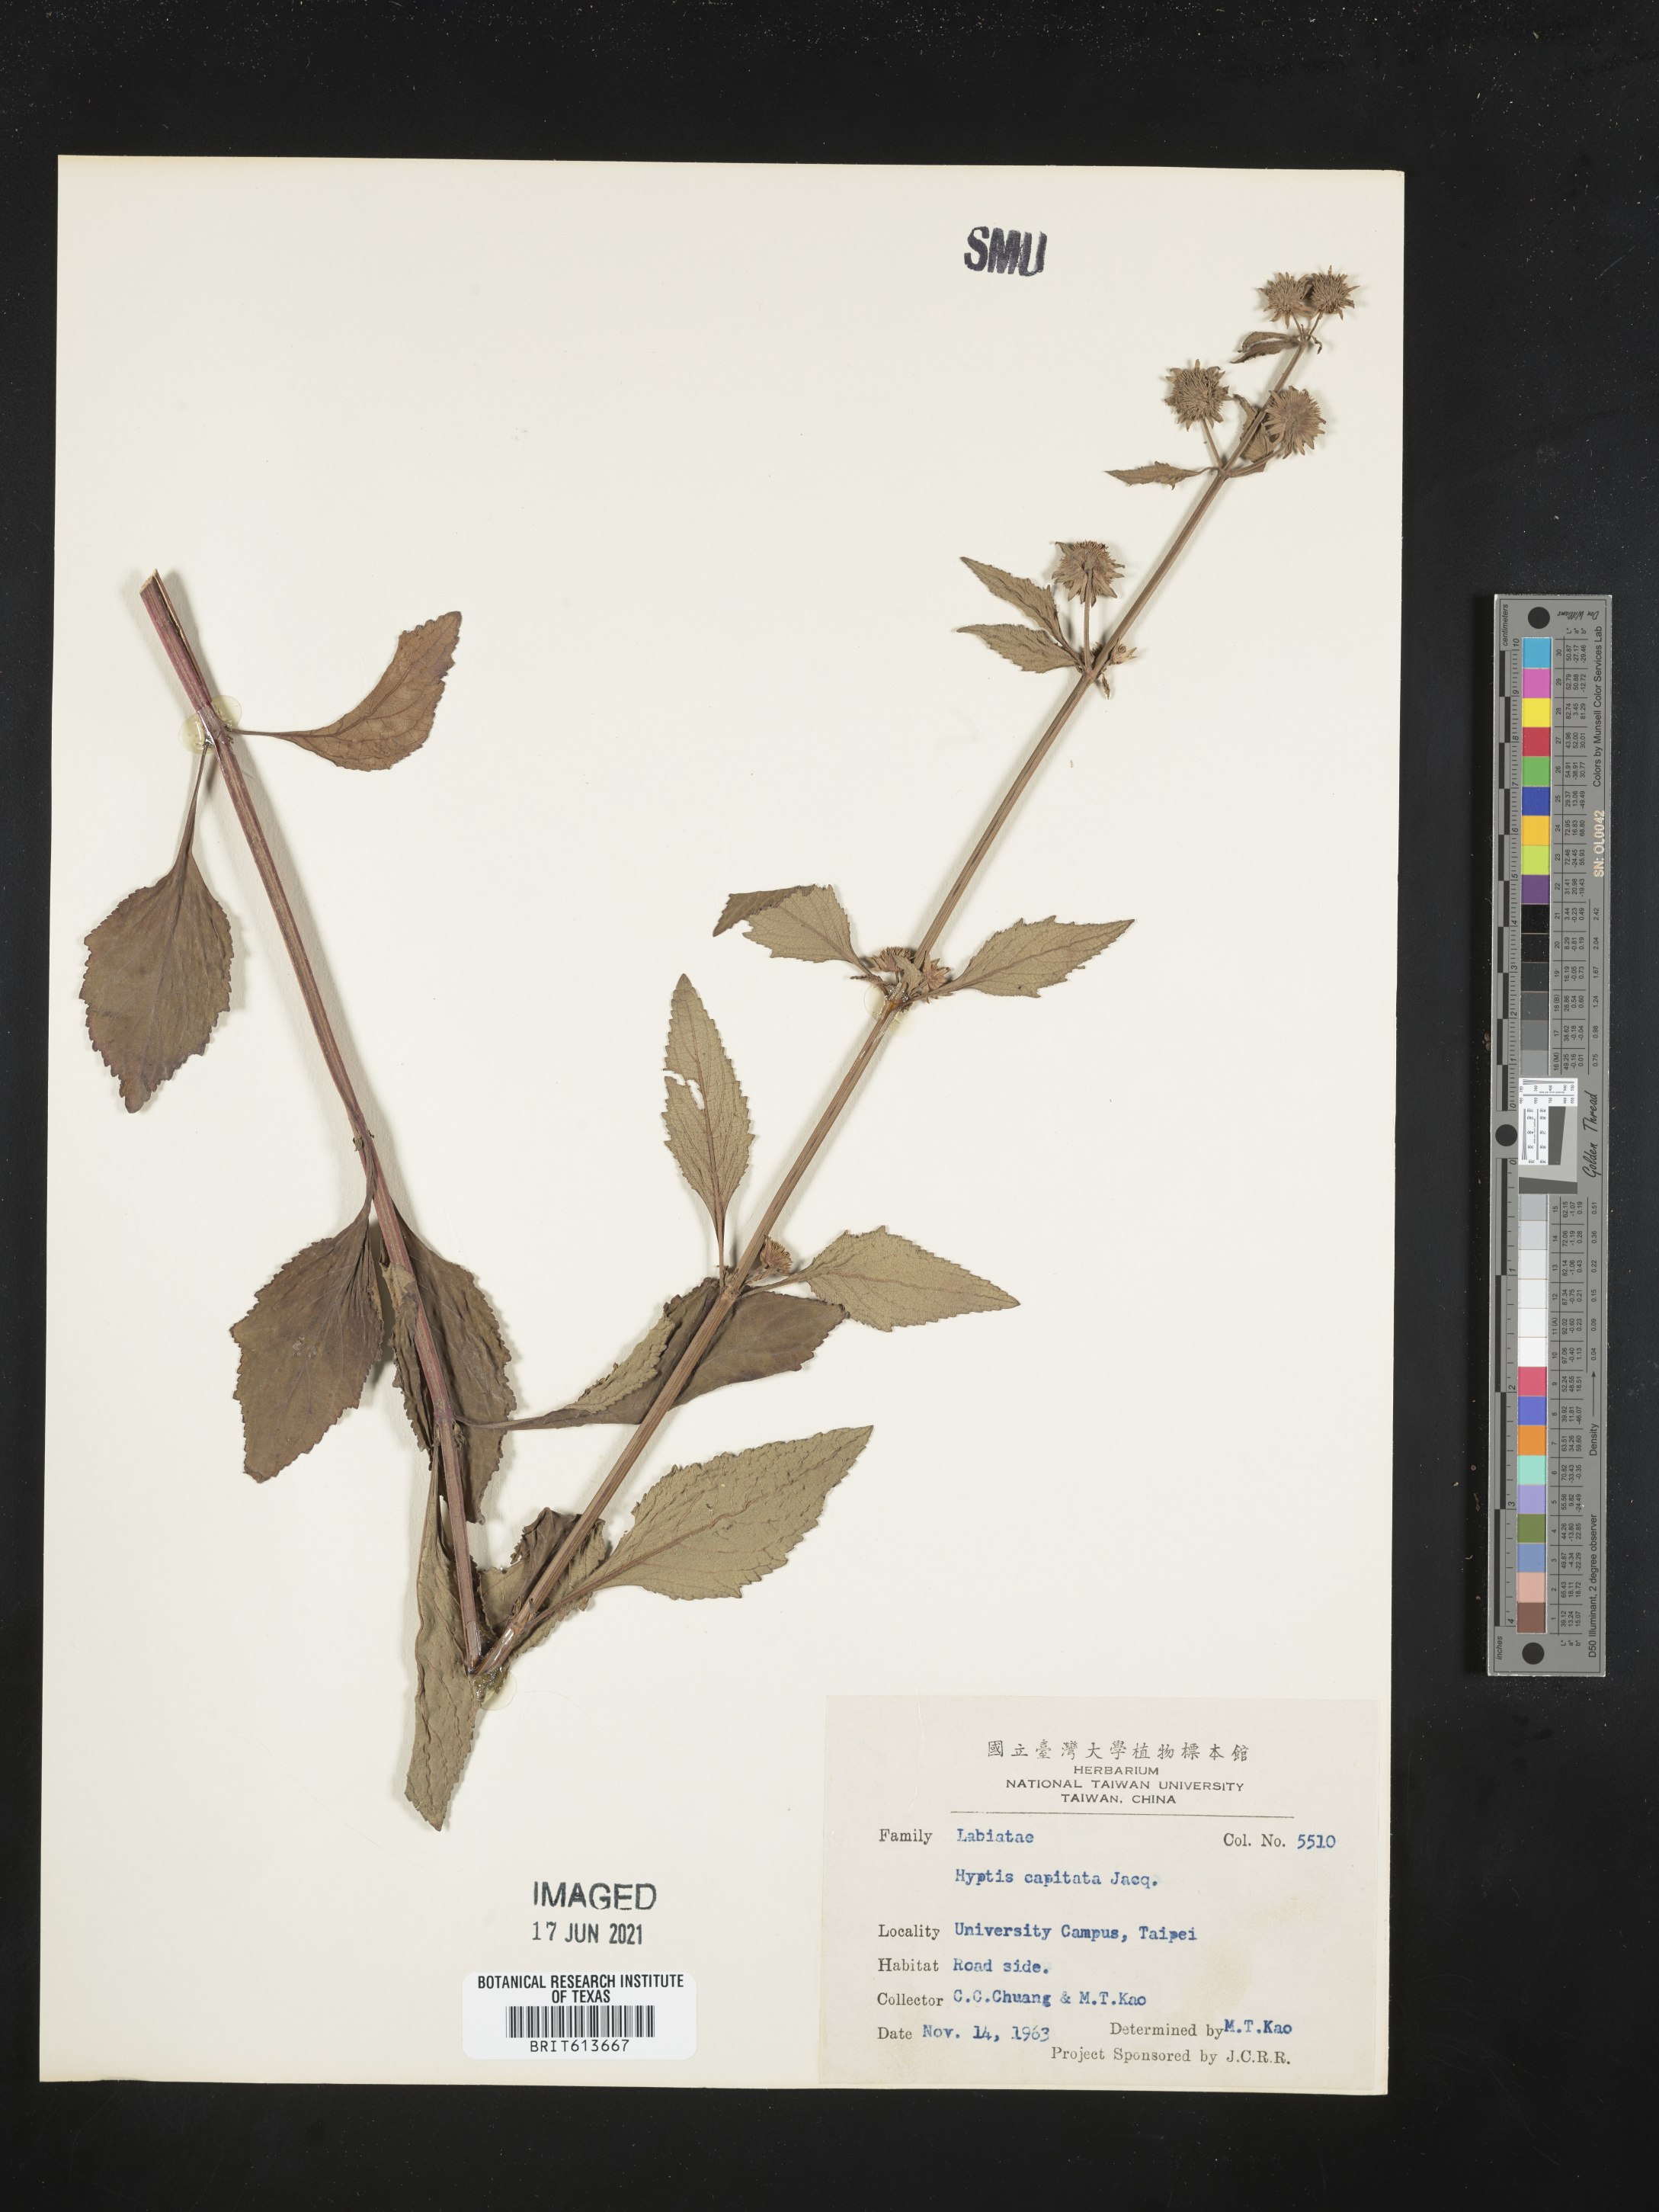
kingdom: Plantae
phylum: Tracheophyta
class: Magnoliopsida
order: Lamiales
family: Lamiaceae
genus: Hyptis
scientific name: Hyptis capitata
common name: False ironwort
